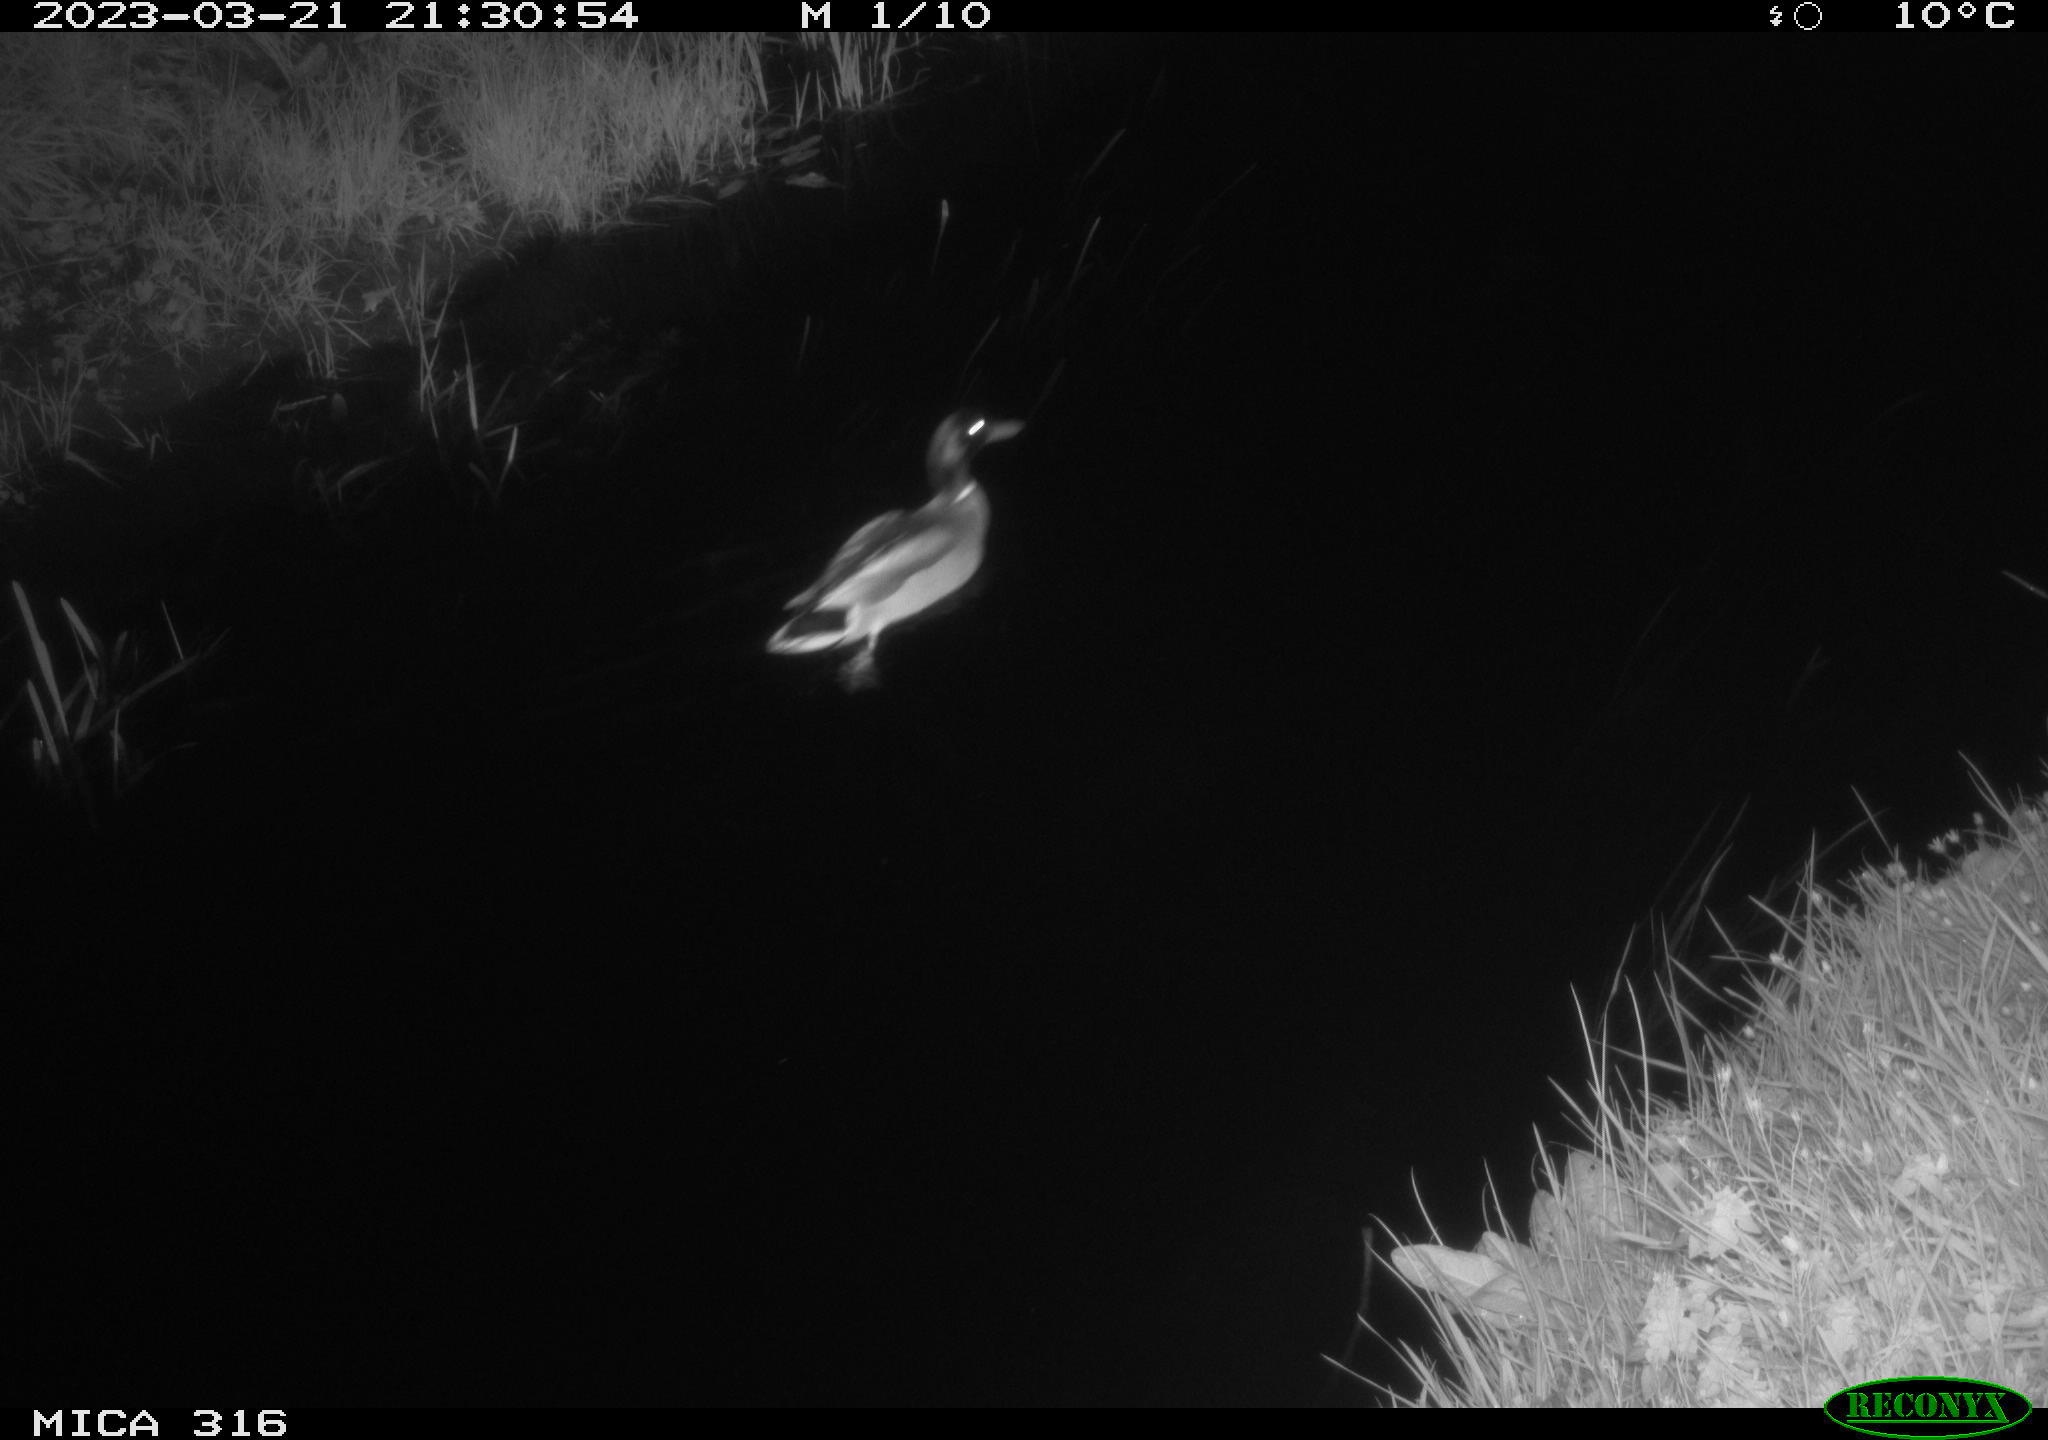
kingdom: Animalia
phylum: Chordata
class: Aves
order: Anseriformes
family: Anatidae
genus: Anas
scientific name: Anas
